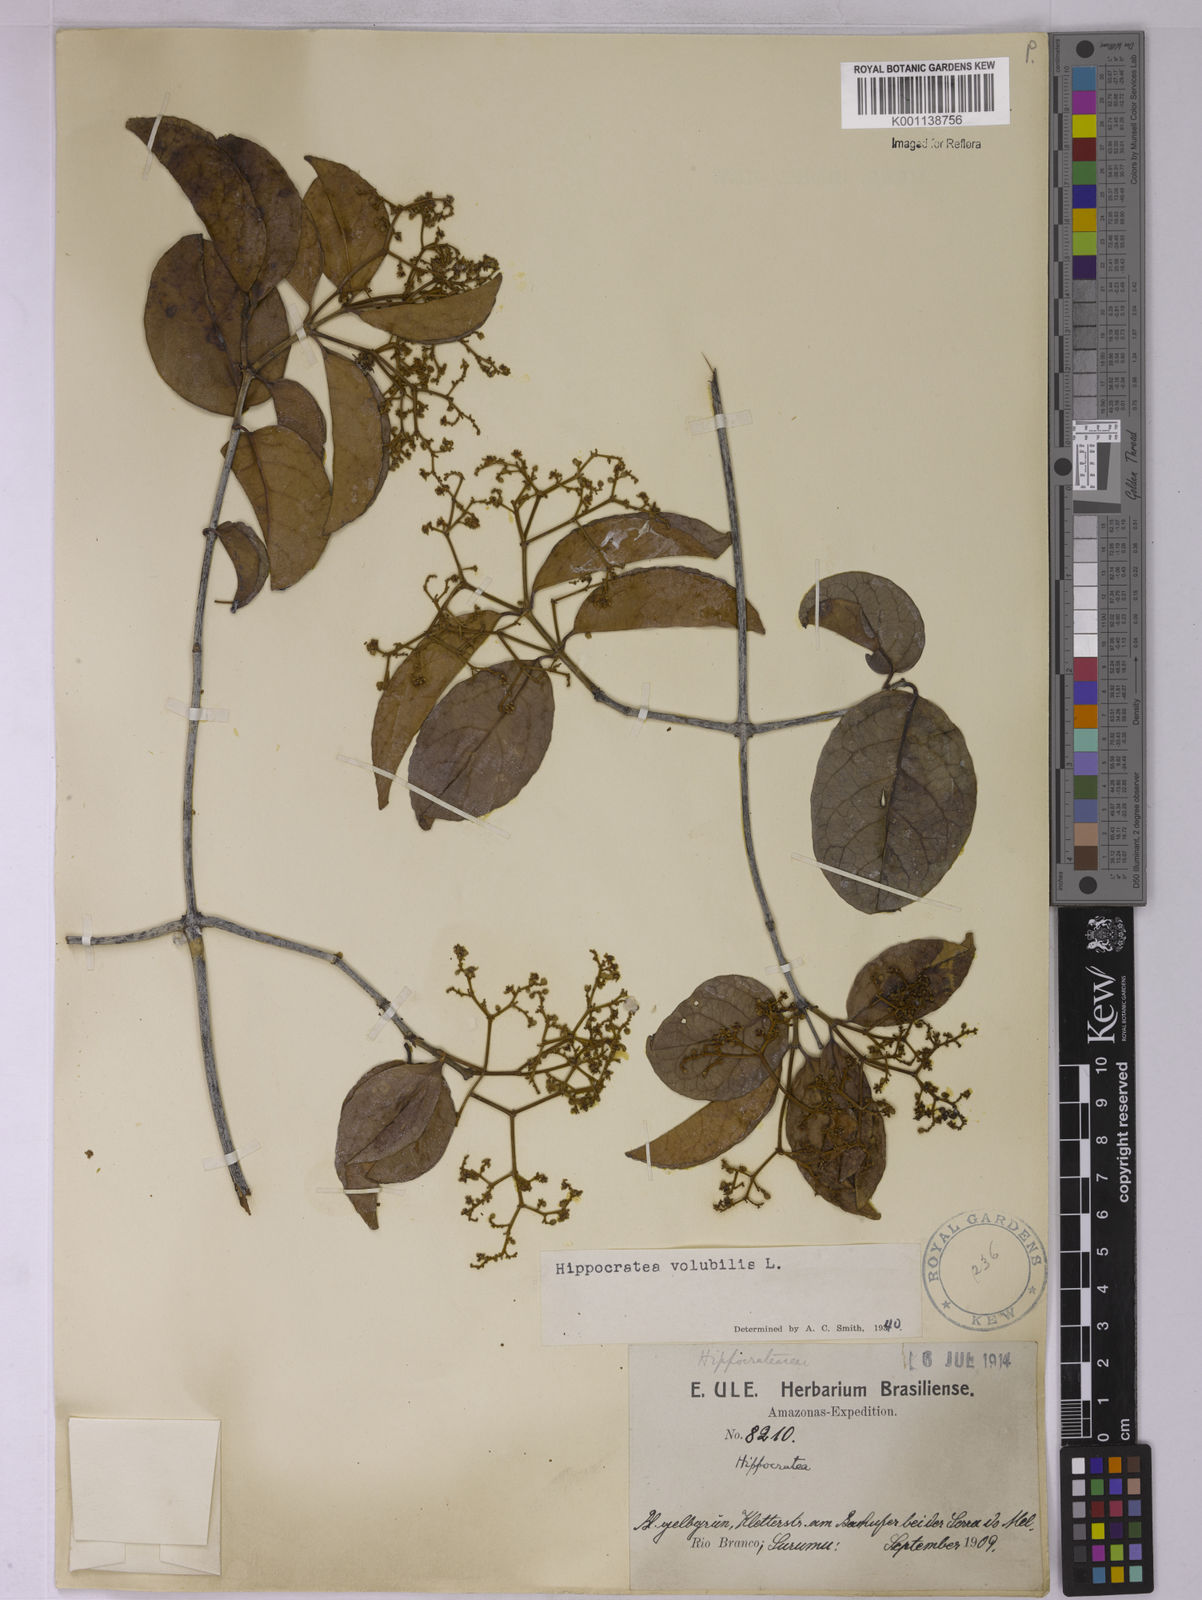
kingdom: Plantae
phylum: Tracheophyta
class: Magnoliopsida
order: Celastrales
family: Celastraceae
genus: Hippocratea
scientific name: Hippocratea volubilis
